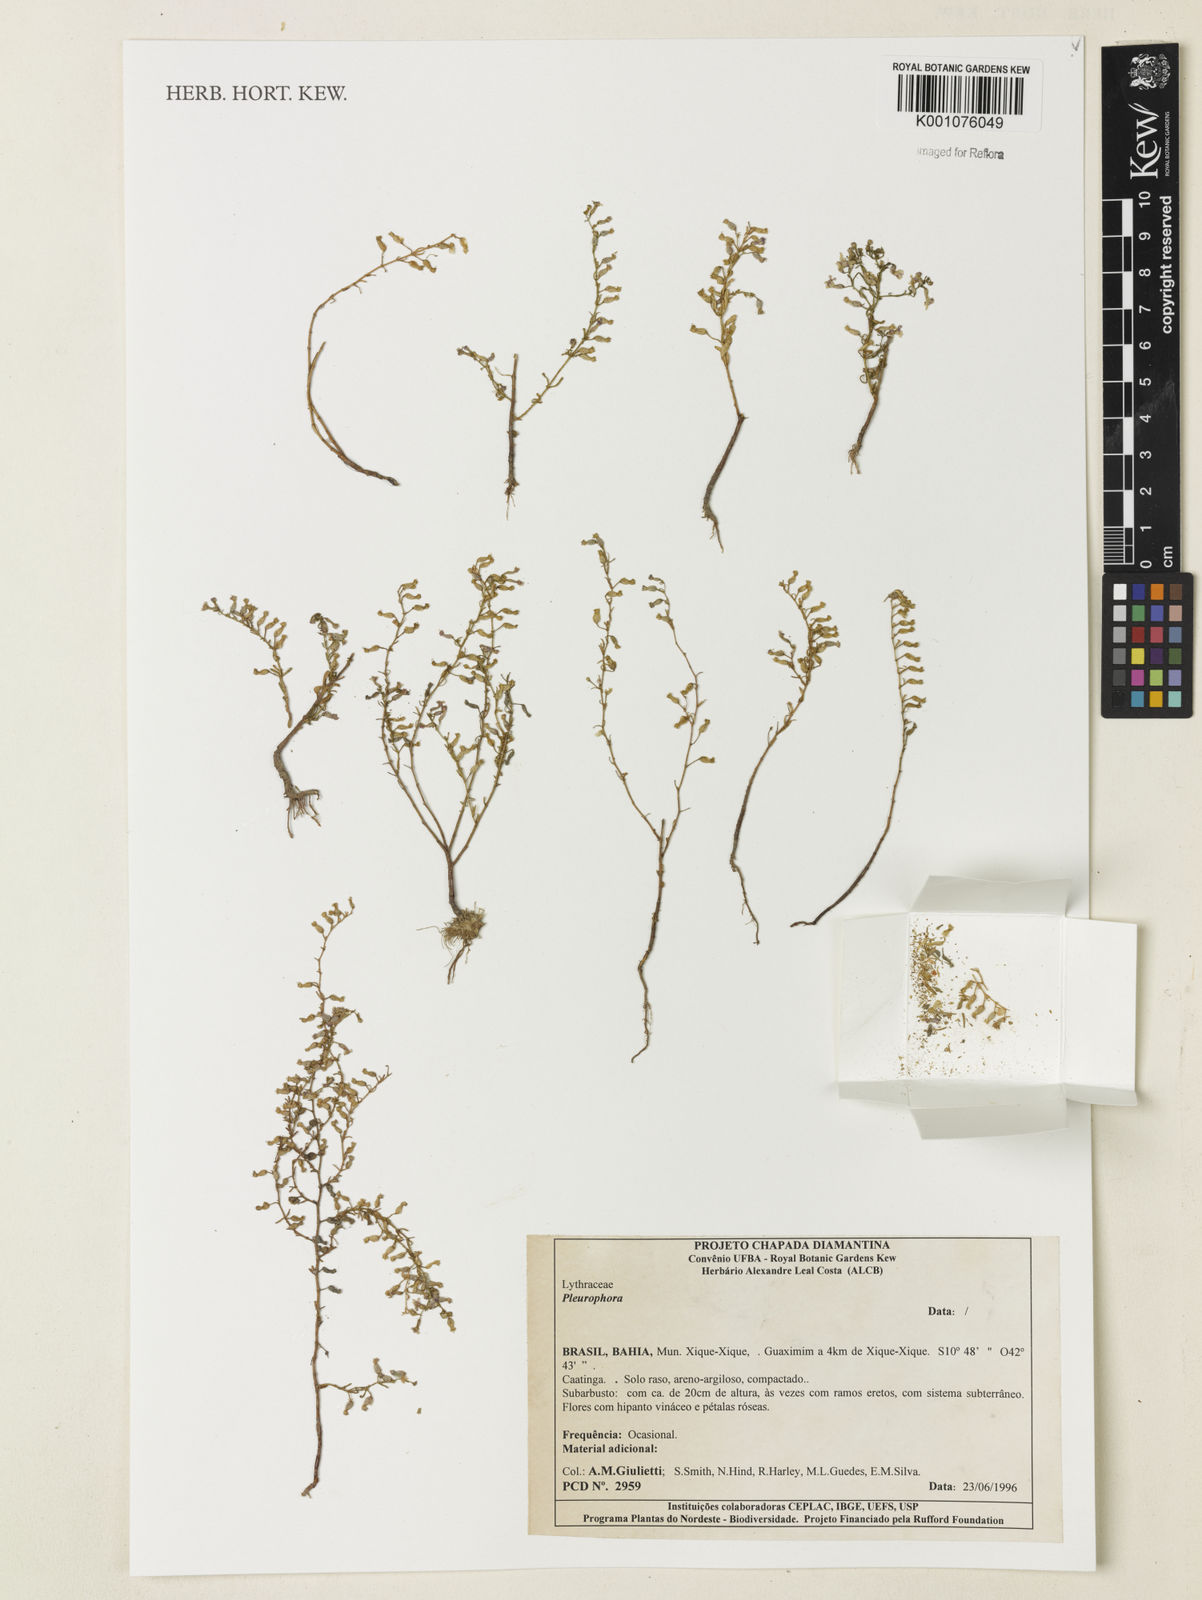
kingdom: Plantae
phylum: Tracheophyta
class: Magnoliopsida
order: Myrtales
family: Lythraceae
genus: Pleurophora
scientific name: Pleurophora
